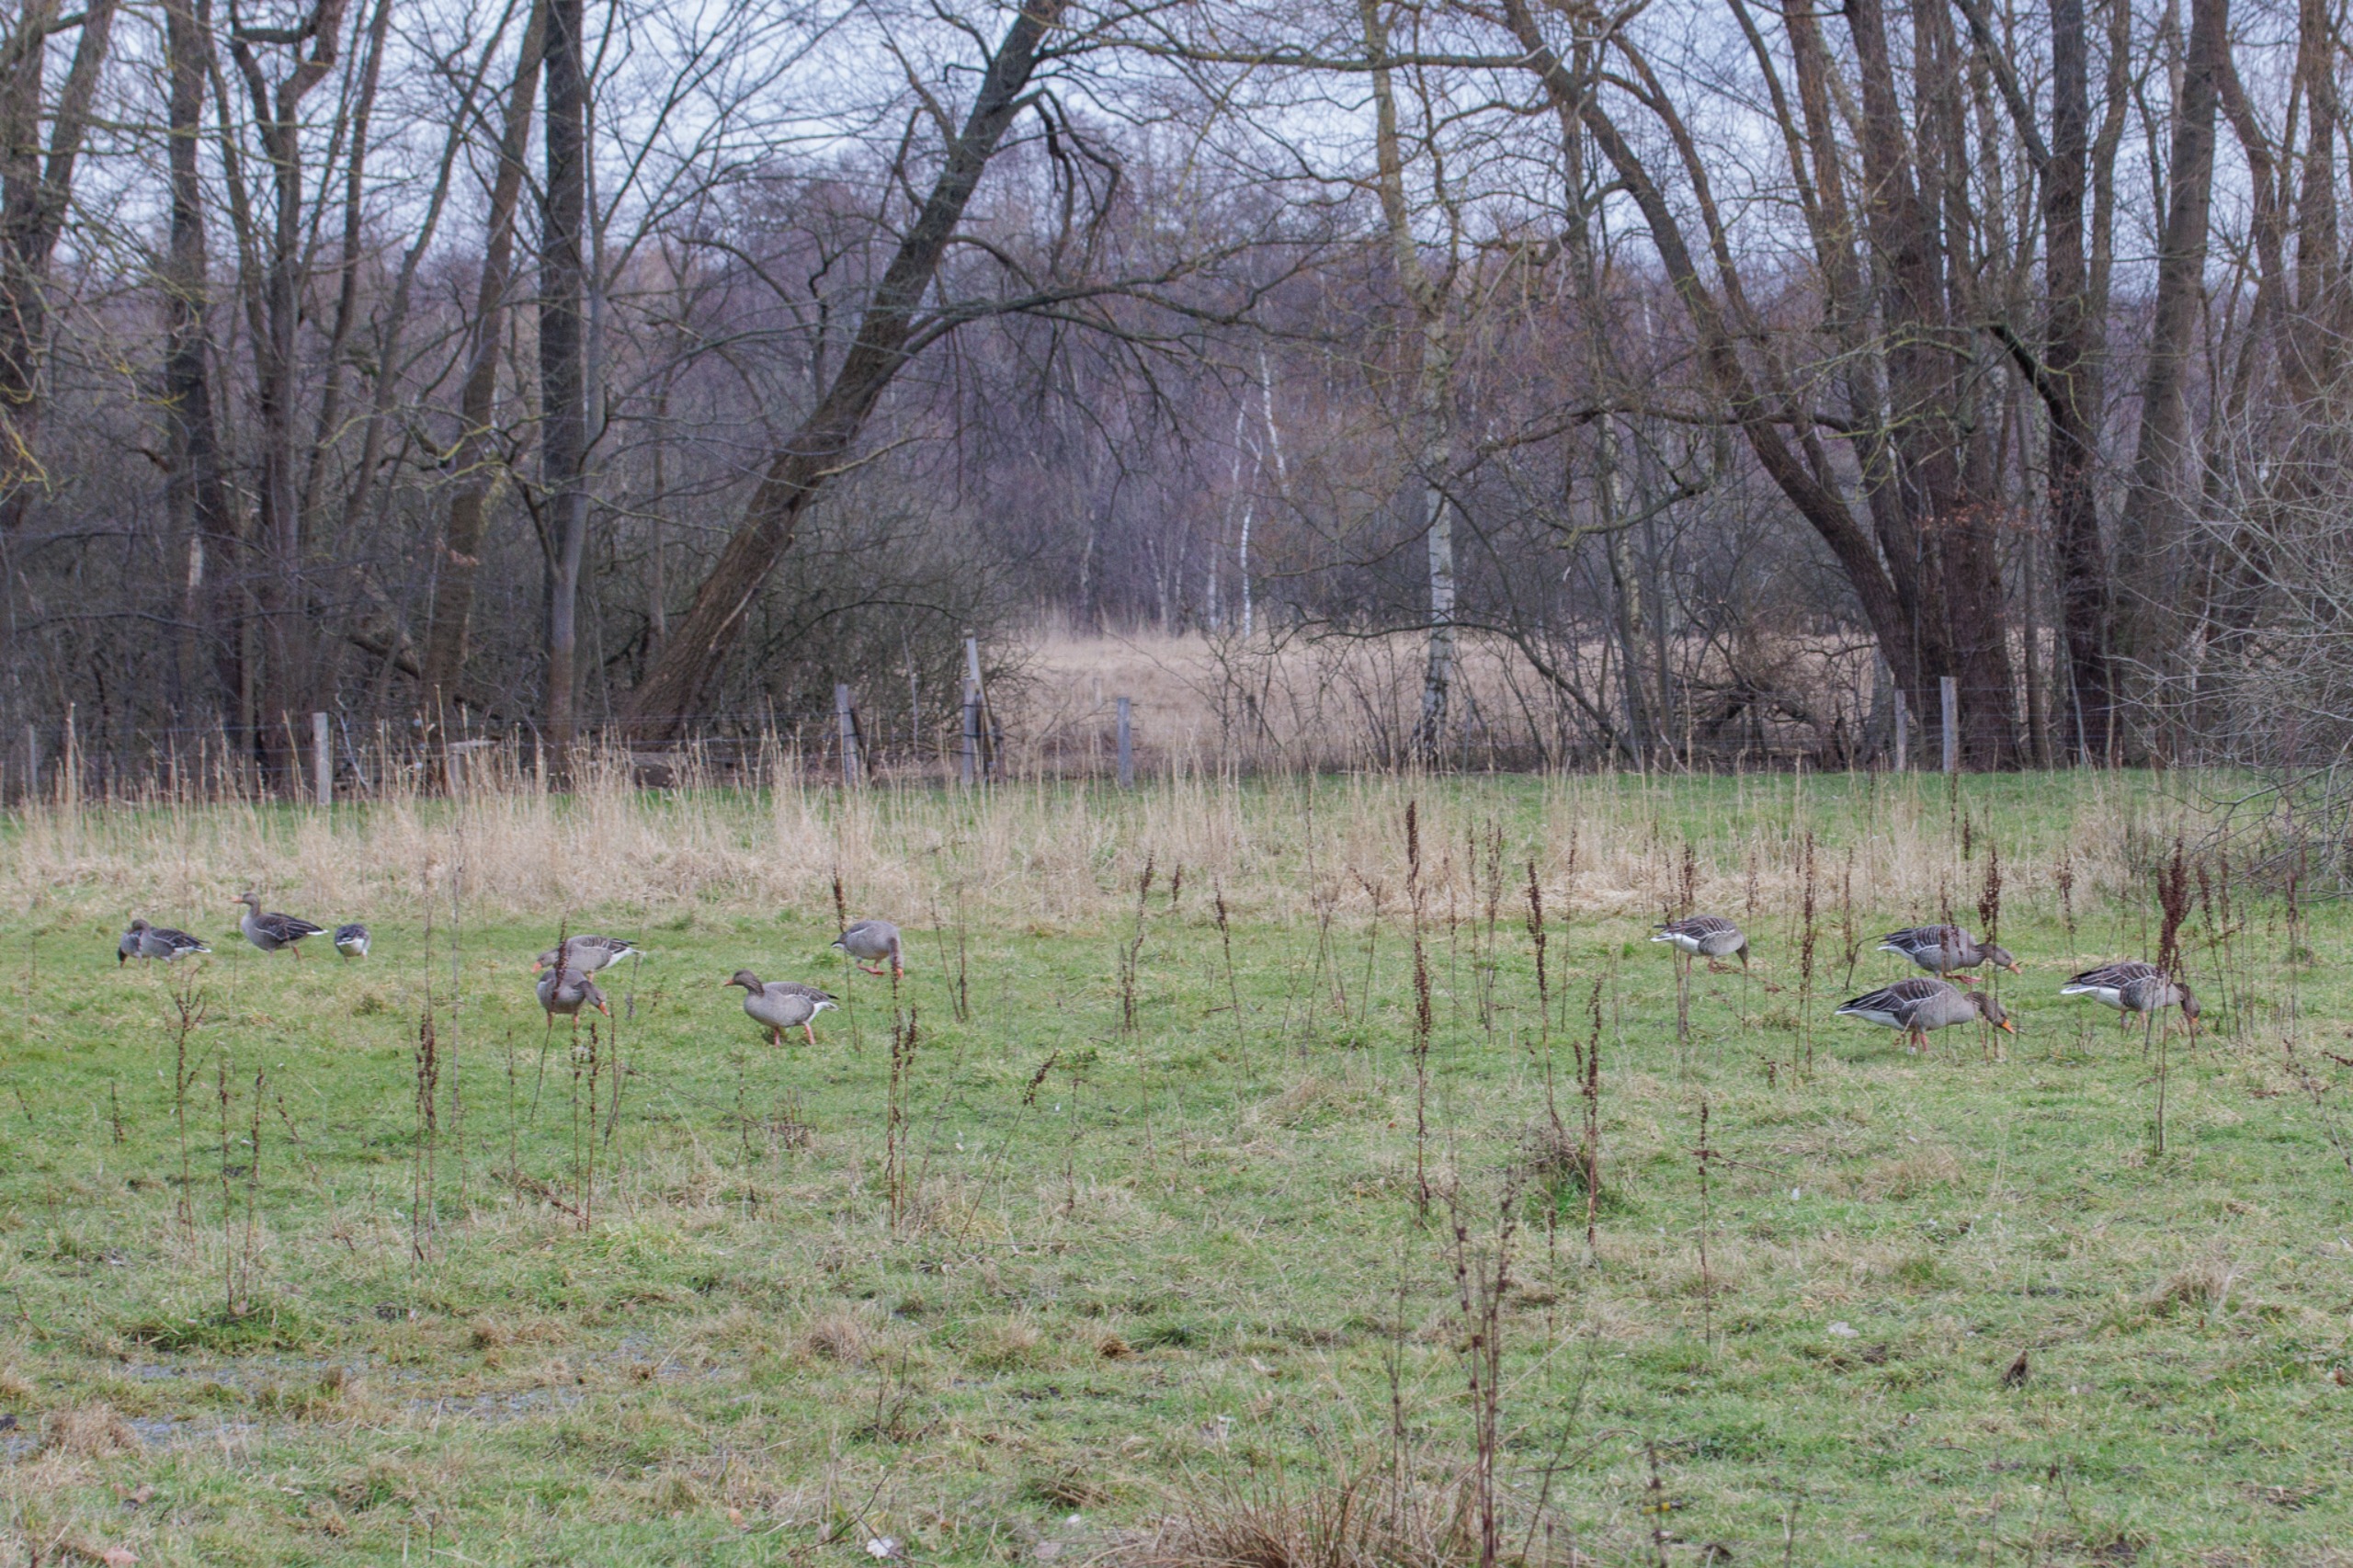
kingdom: Animalia
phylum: Chordata
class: Aves
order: Anseriformes
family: Anatidae
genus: Anser
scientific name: Anser anser
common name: Grågås
